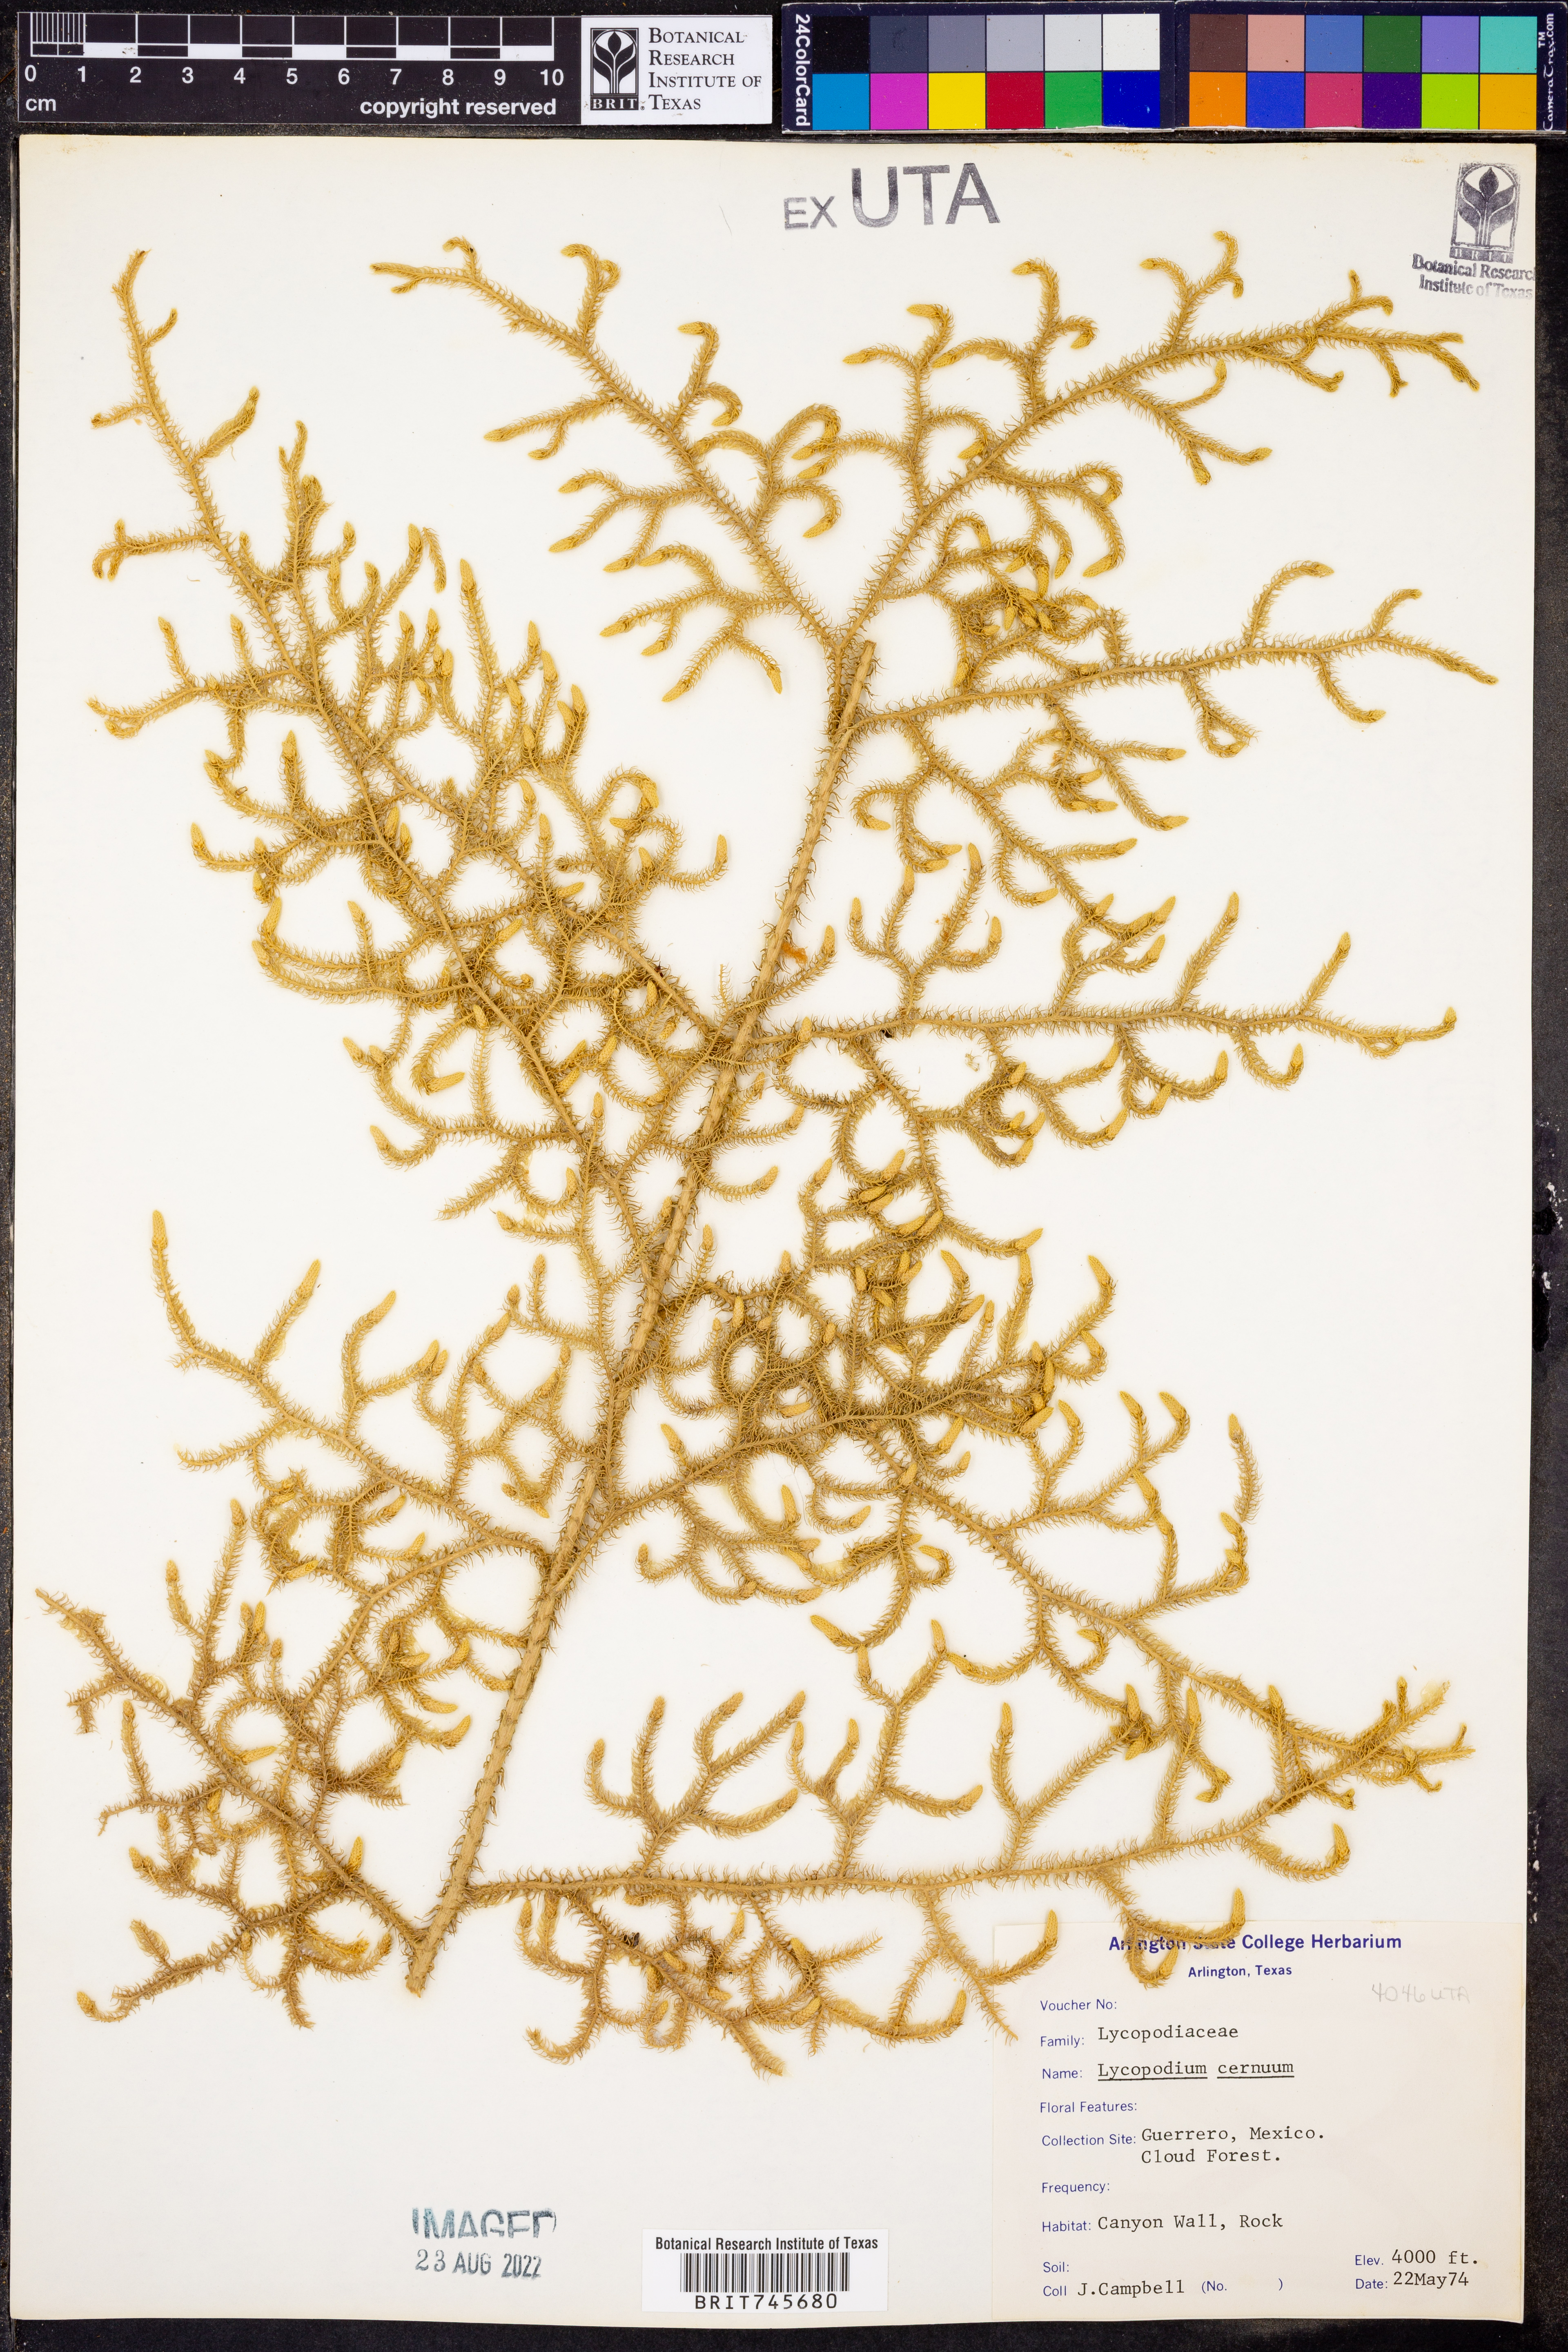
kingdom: Plantae
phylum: Tracheophyta
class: Lycopodiopsida
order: Lycopodiales
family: Lycopodiaceae
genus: Palhinhaea
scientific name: Palhinhaea cernua
